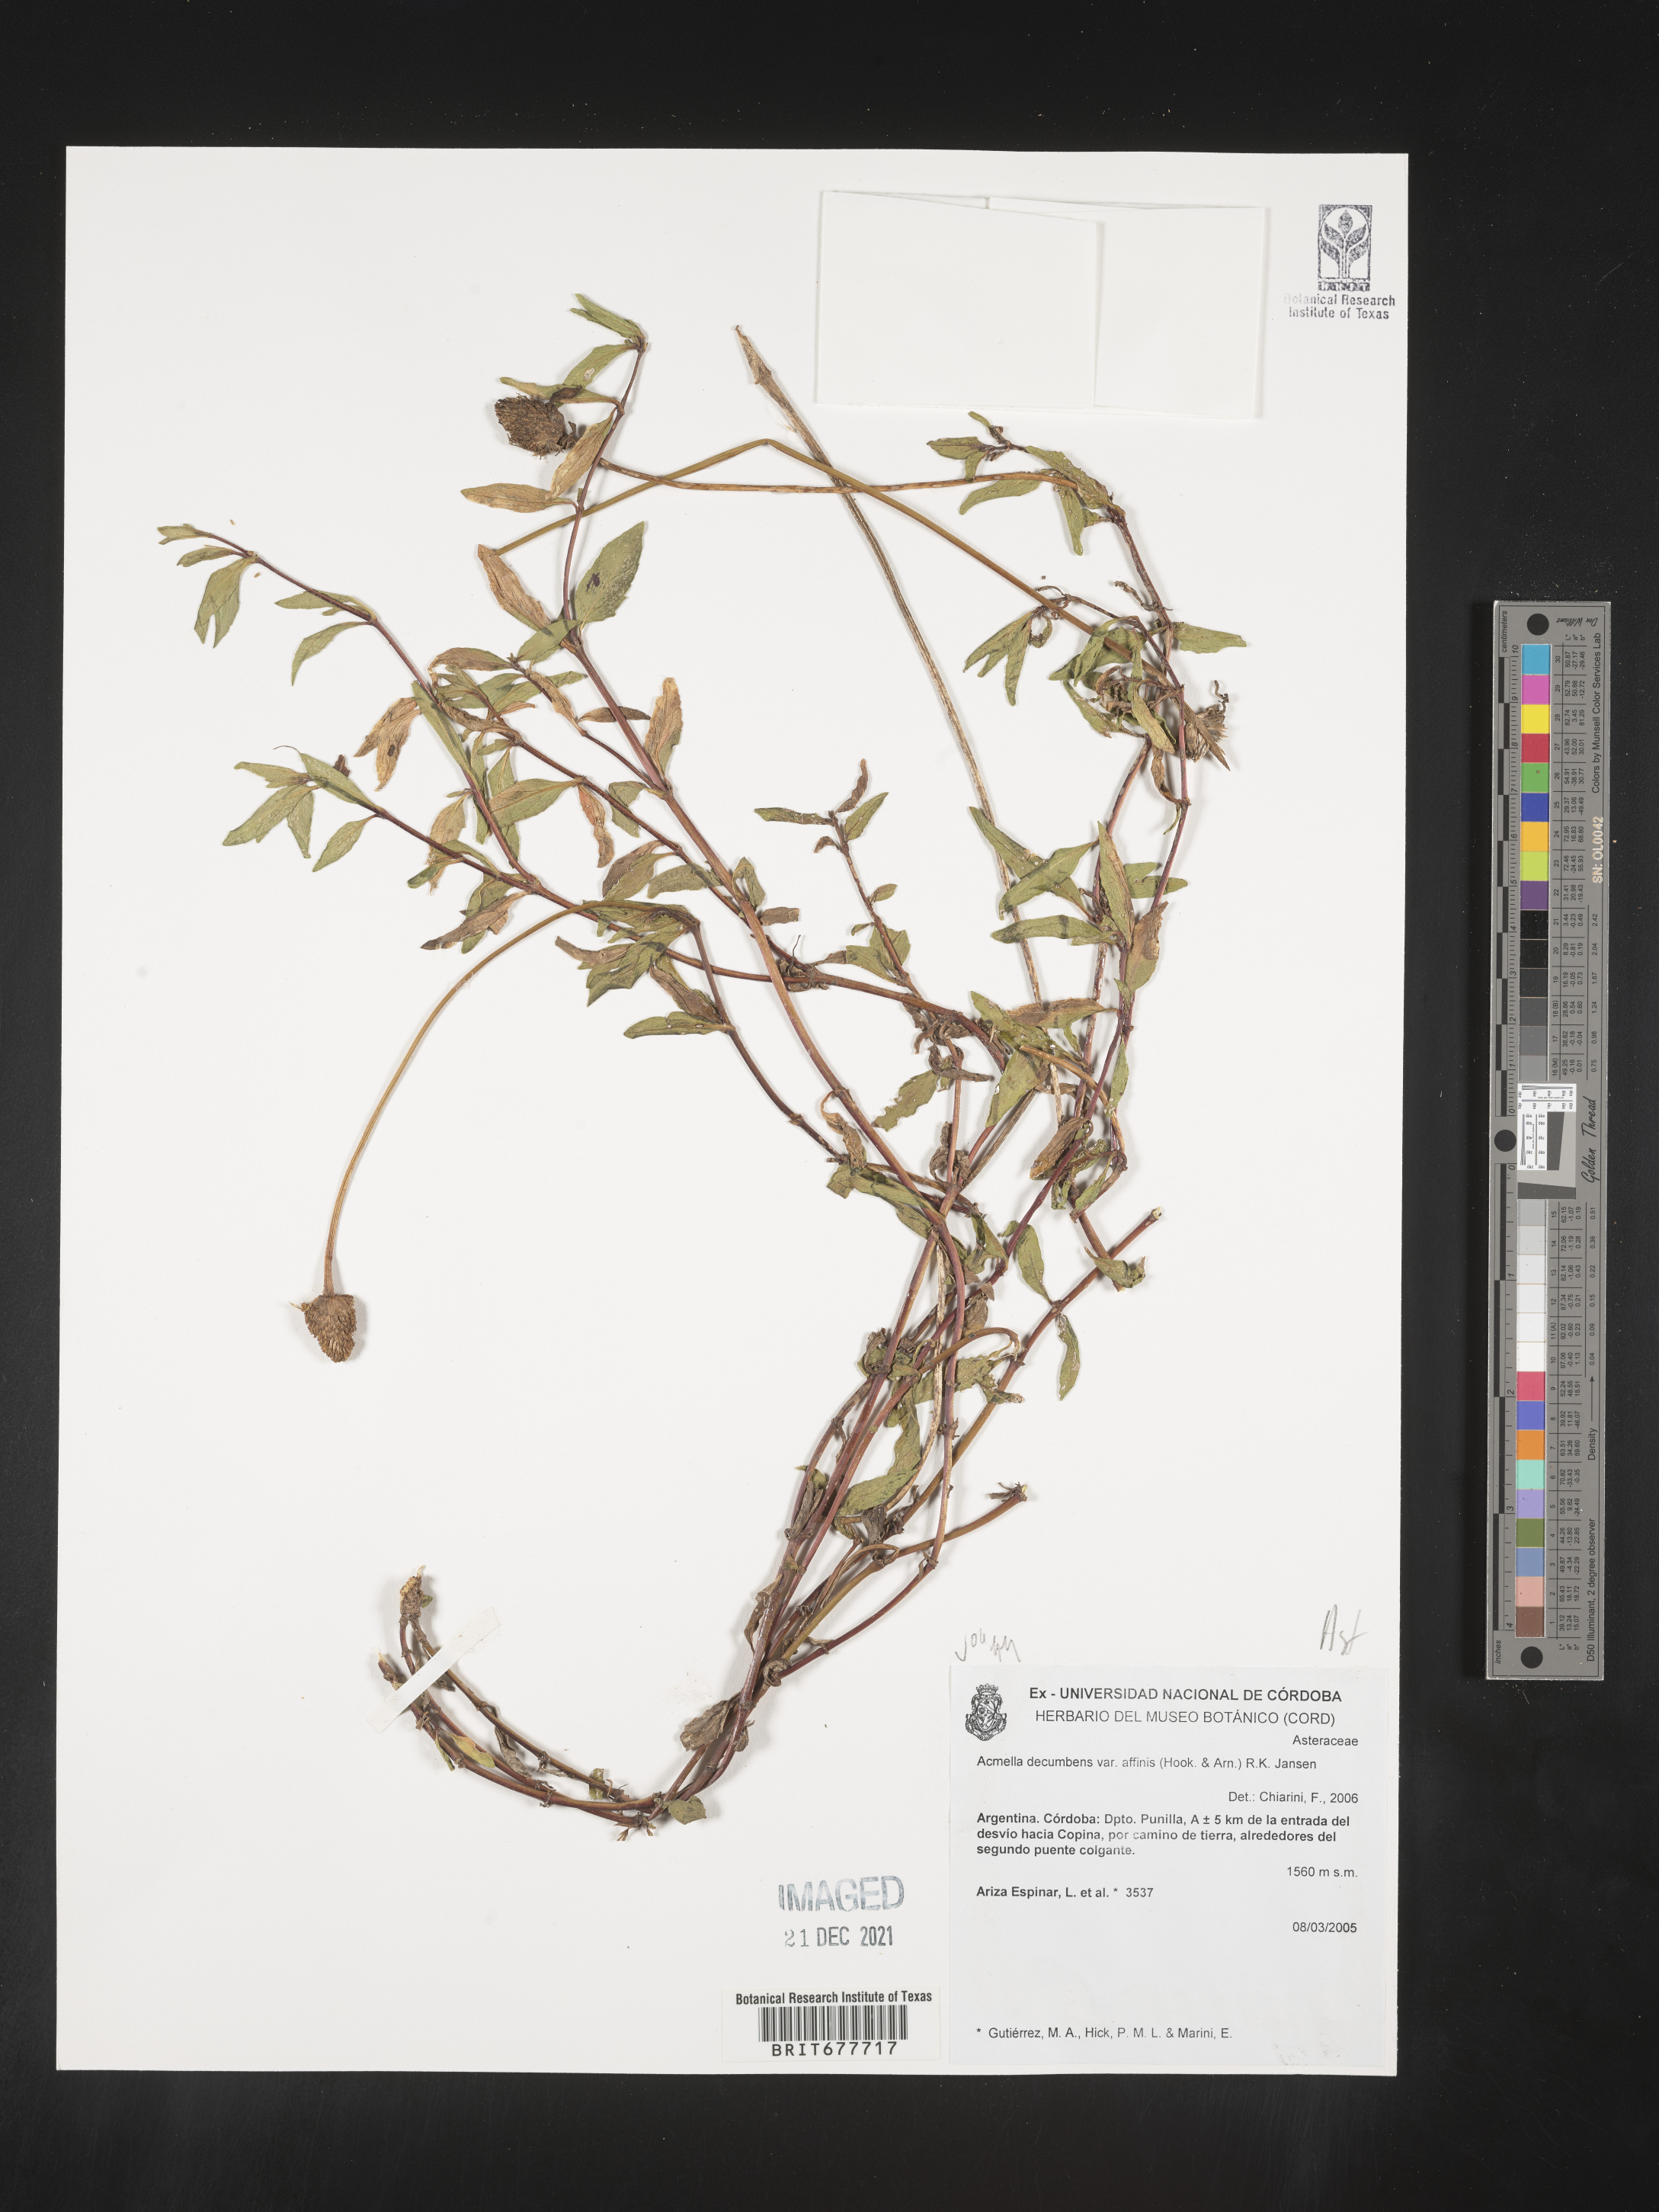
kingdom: Plantae
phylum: Tracheophyta
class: Magnoliopsida
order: Asterales
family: Asteraceae
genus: Spilanthes
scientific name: Spilanthes
